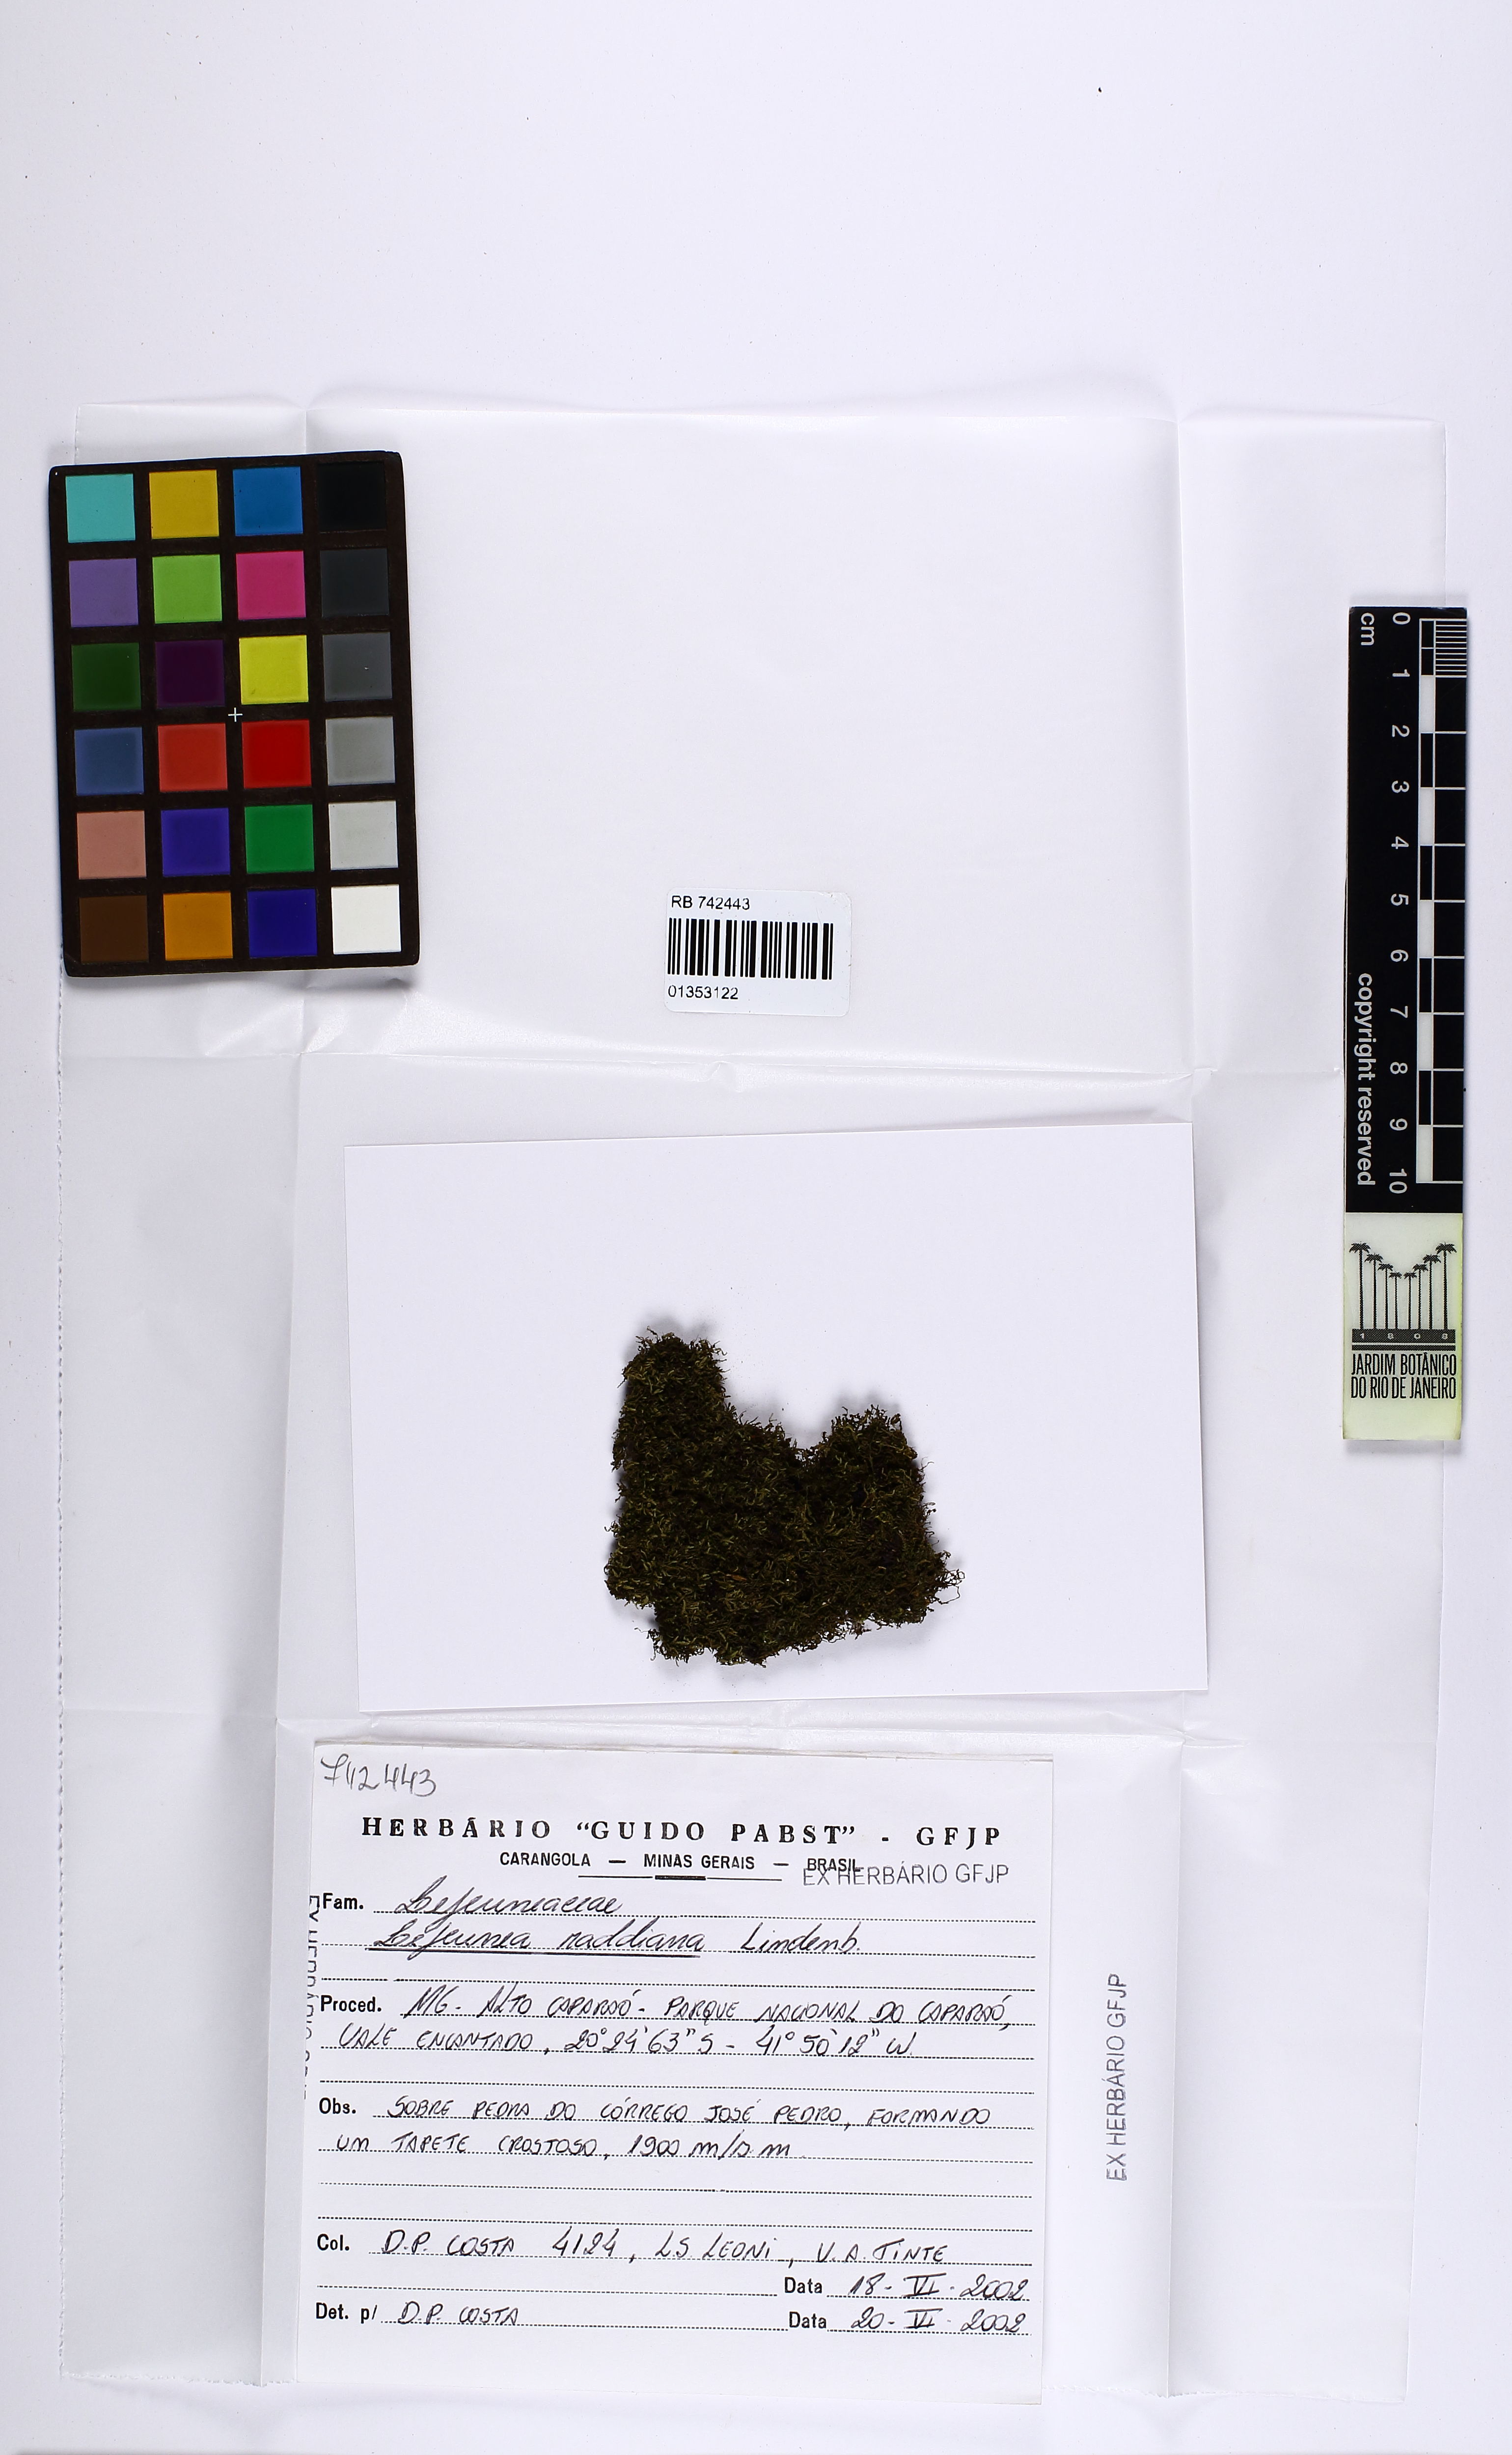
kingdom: Plantae
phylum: Marchantiophyta
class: Jungermanniopsida
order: Porellales
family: Lejeuneaceae
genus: Lejeunea
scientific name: Lejeunea raddiana
